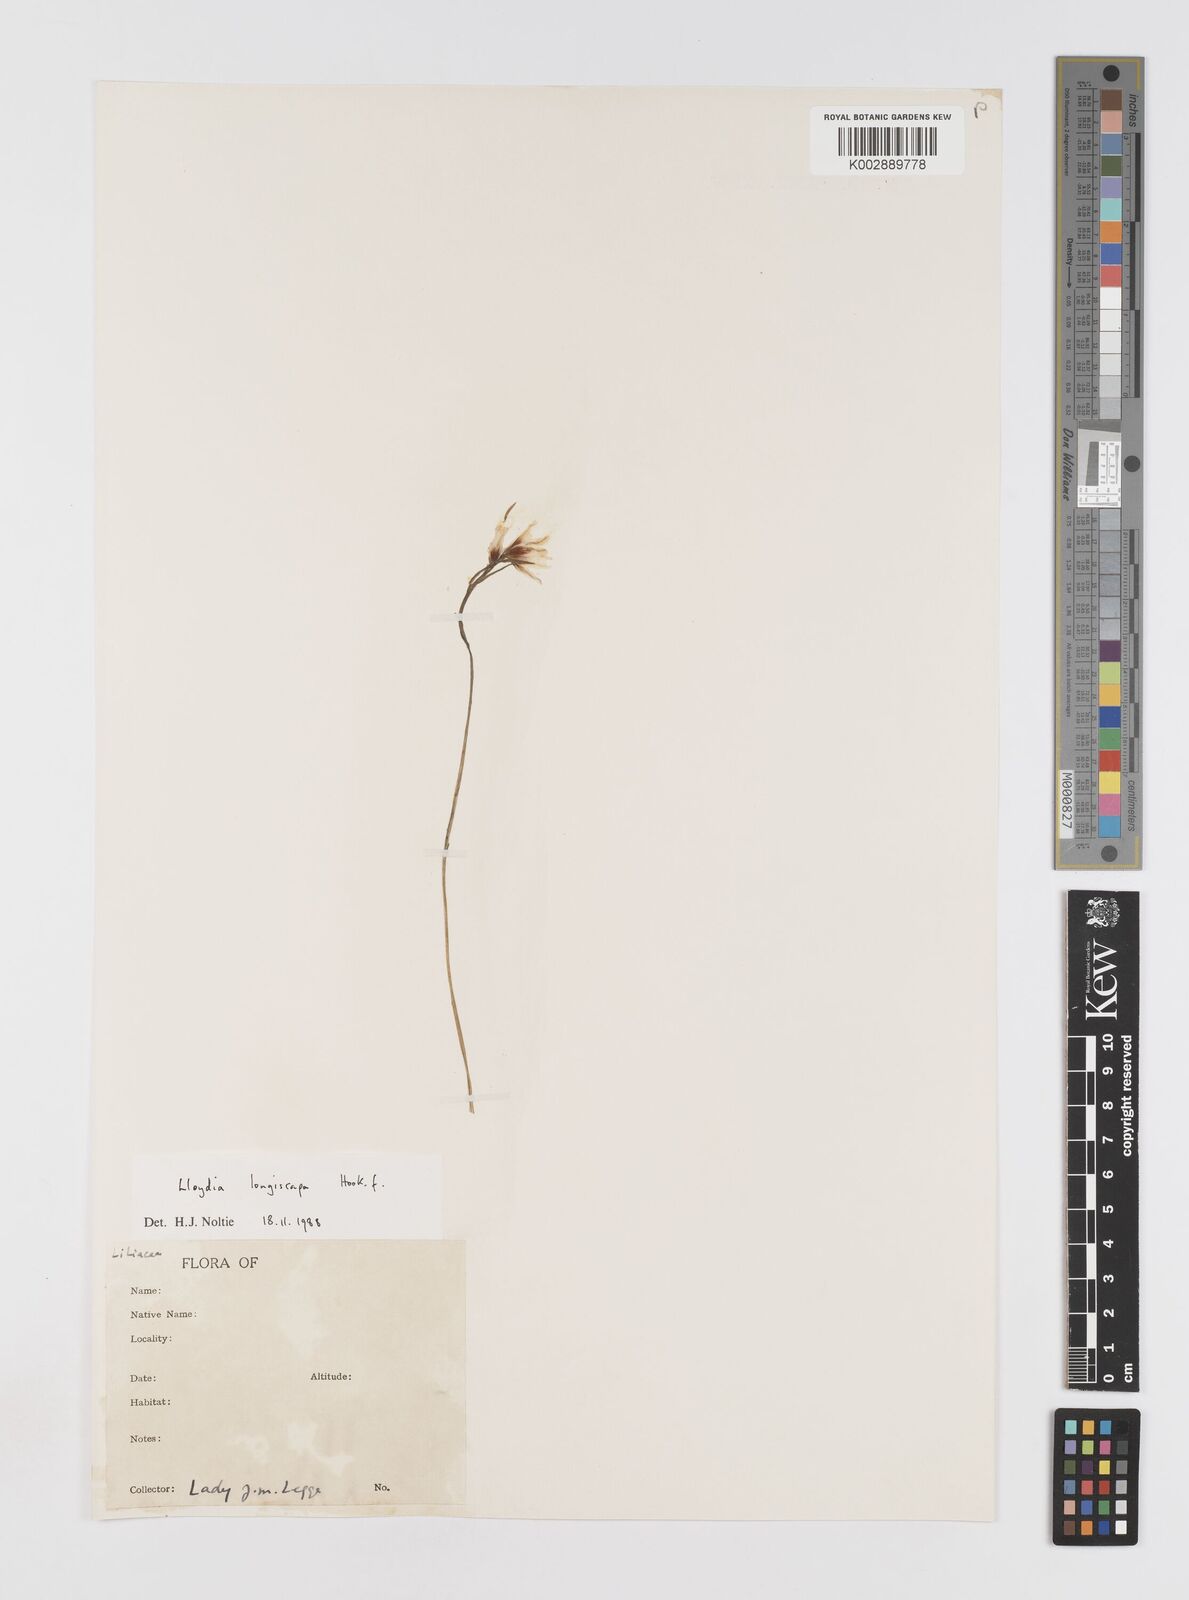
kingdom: Plantae
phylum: Tracheophyta
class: Liliopsida
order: Liliales
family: Liliaceae
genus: Gagea
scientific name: Gagea longiscapa
